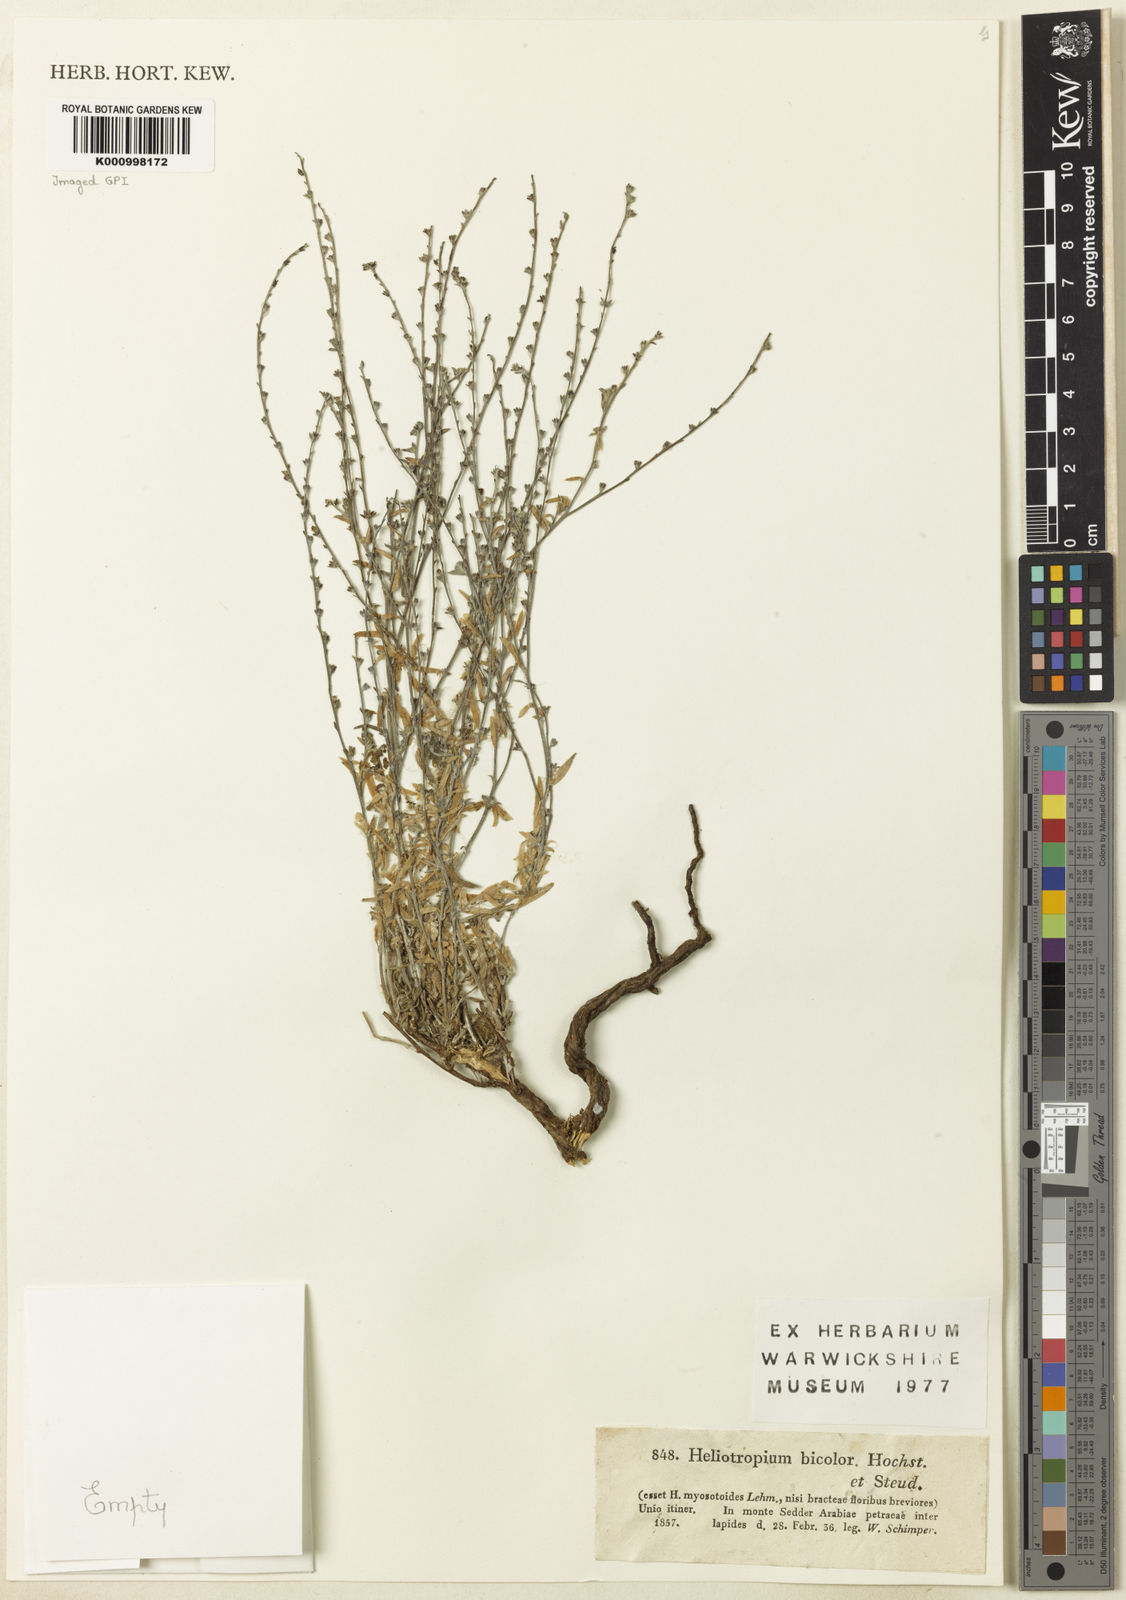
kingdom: Plantae
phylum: Tracheophyta
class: Magnoliopsida
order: Boraginales
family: Heliotropiaceae
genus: Euploca
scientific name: Euploca strigosa
